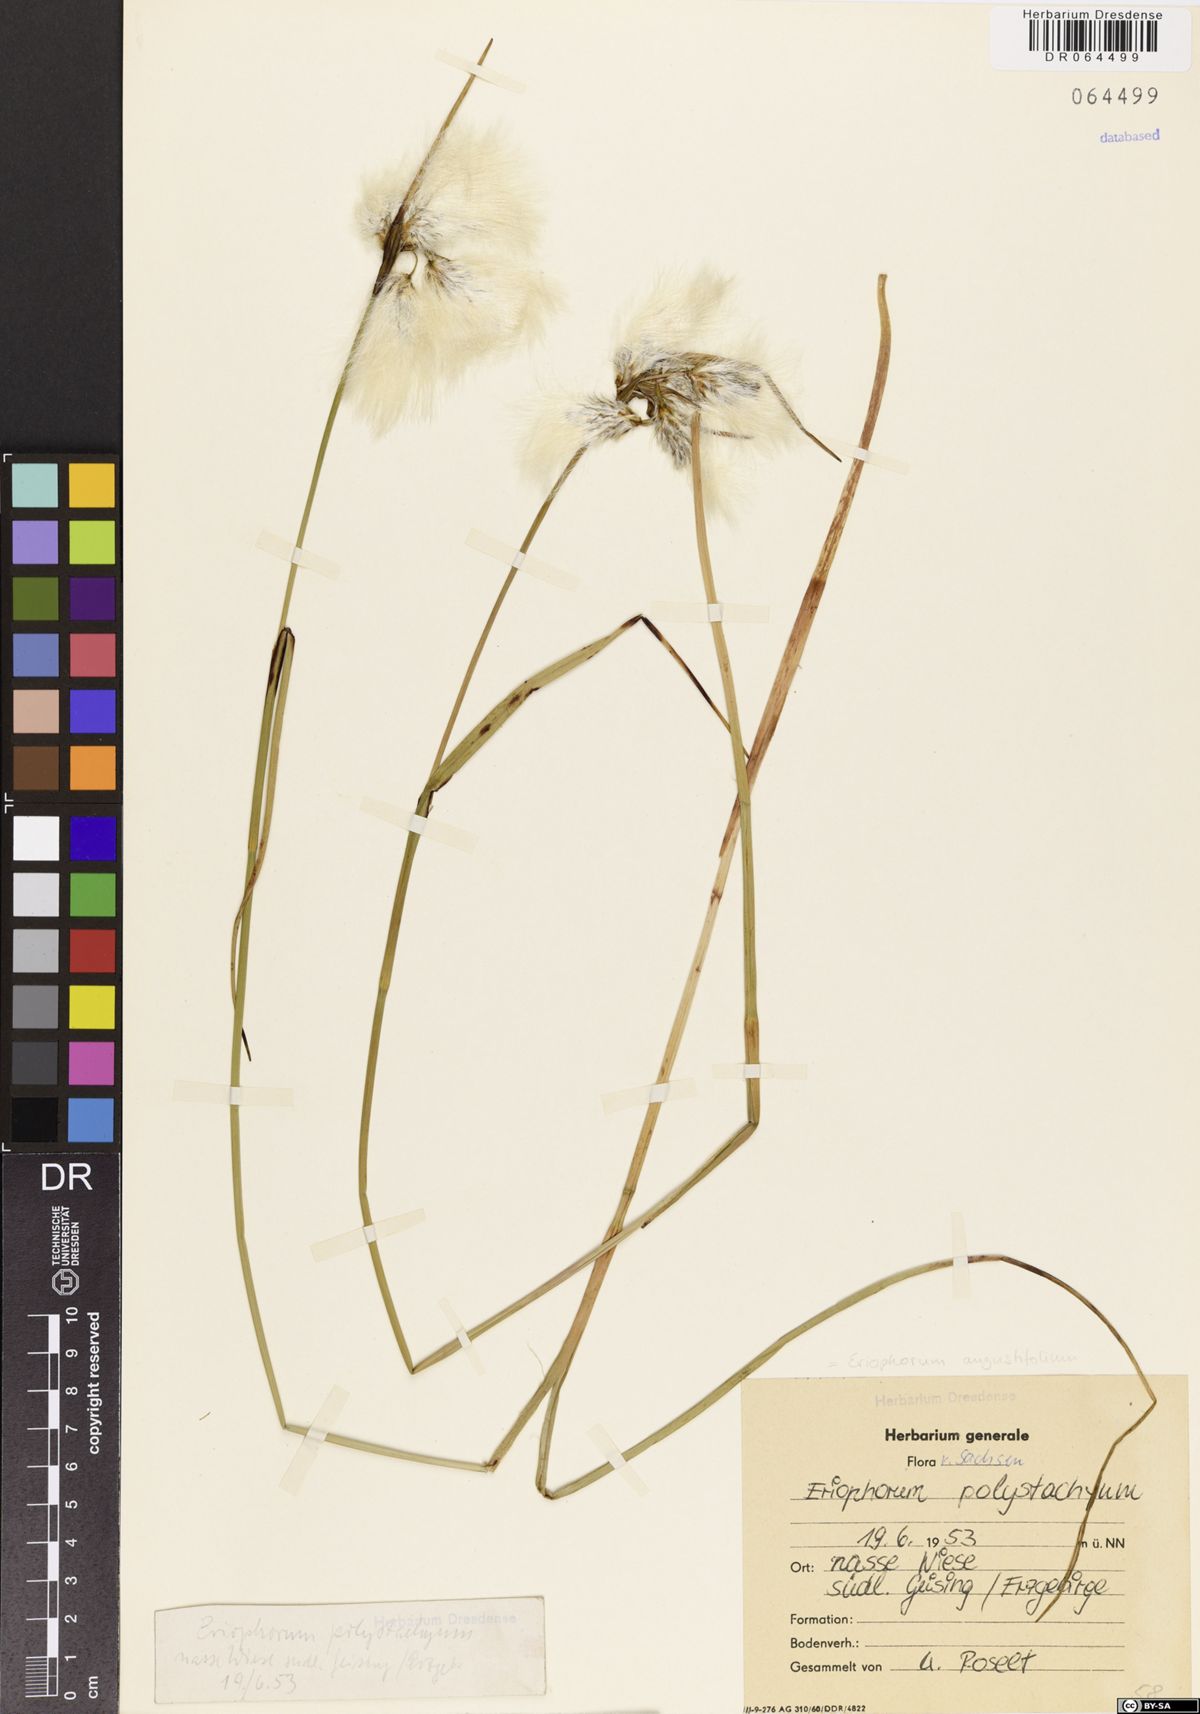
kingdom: Plantae
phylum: Tracheophyta
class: Liliopsida
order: Poales
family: Cyperaceae
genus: Eriophorum
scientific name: Eriophorum angustifolium
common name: Common cottongrass
